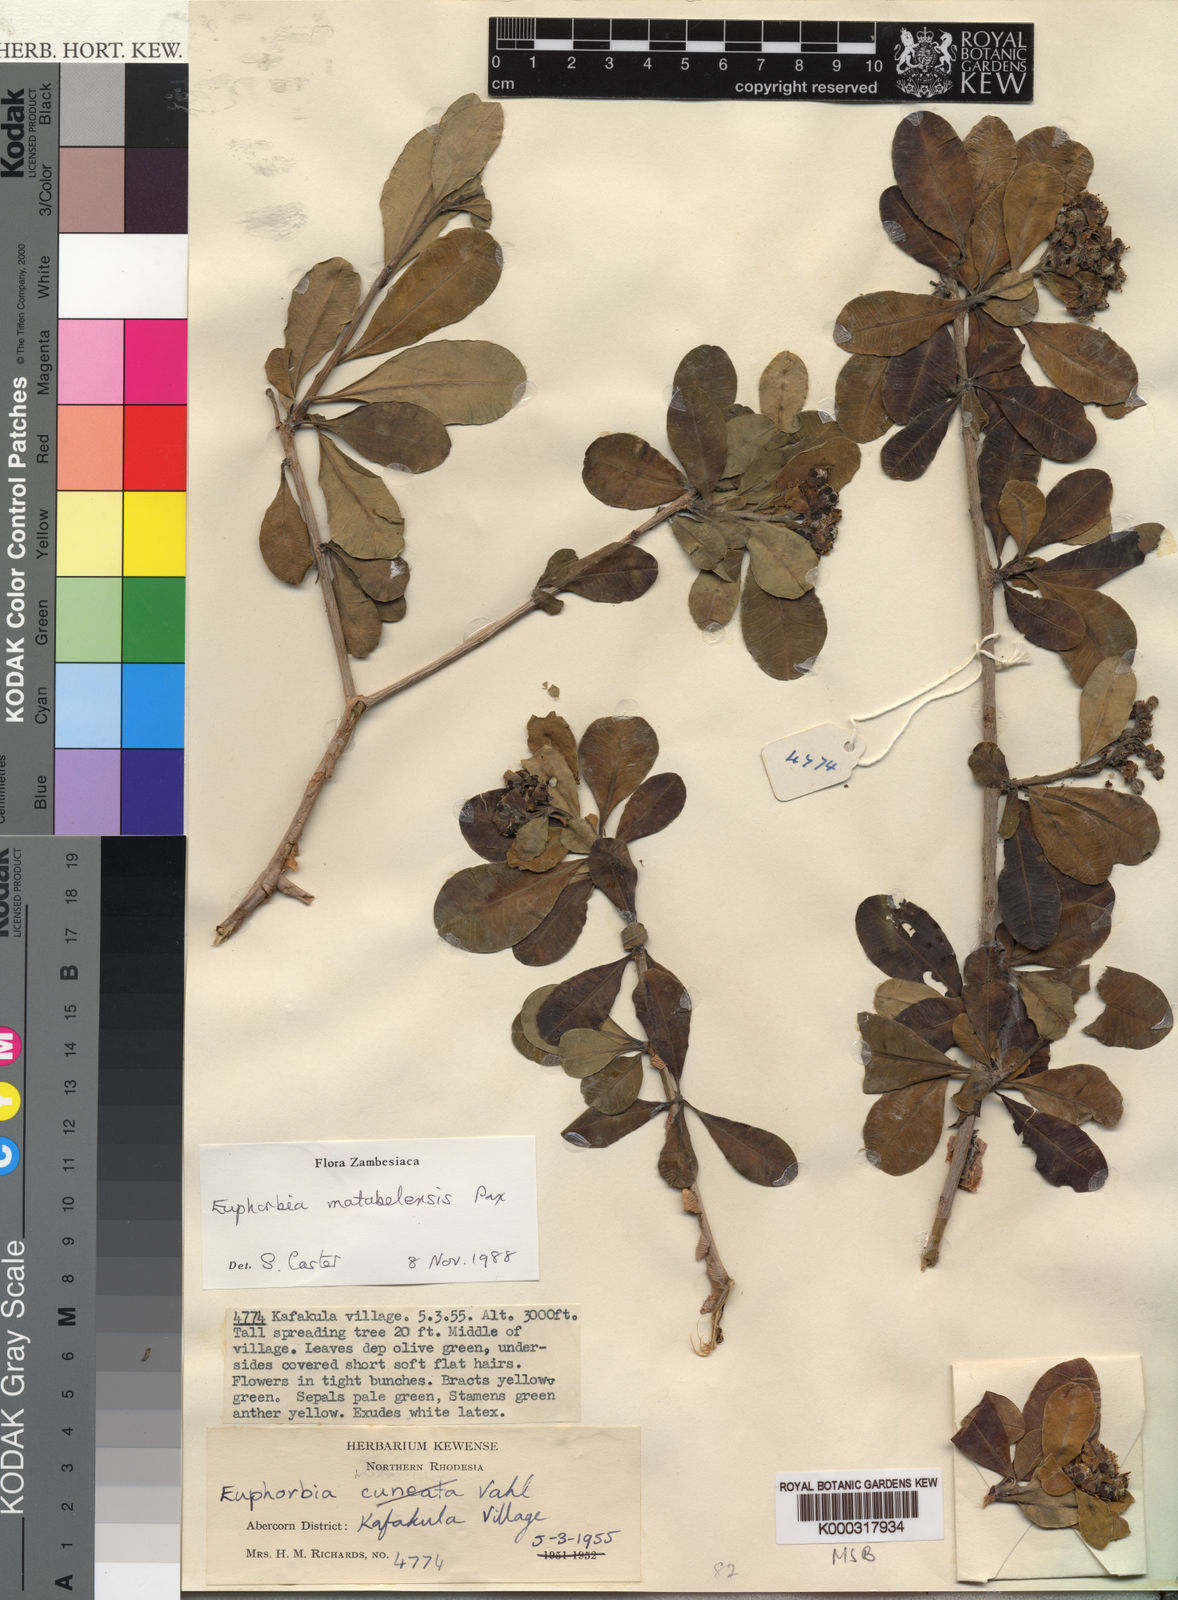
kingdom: Plantae
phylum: Tracheophyta
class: Magnoliopsida
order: Malpighiales
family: Euphorbiaceae
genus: Euphorbia
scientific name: Euphorbia matabelensis
